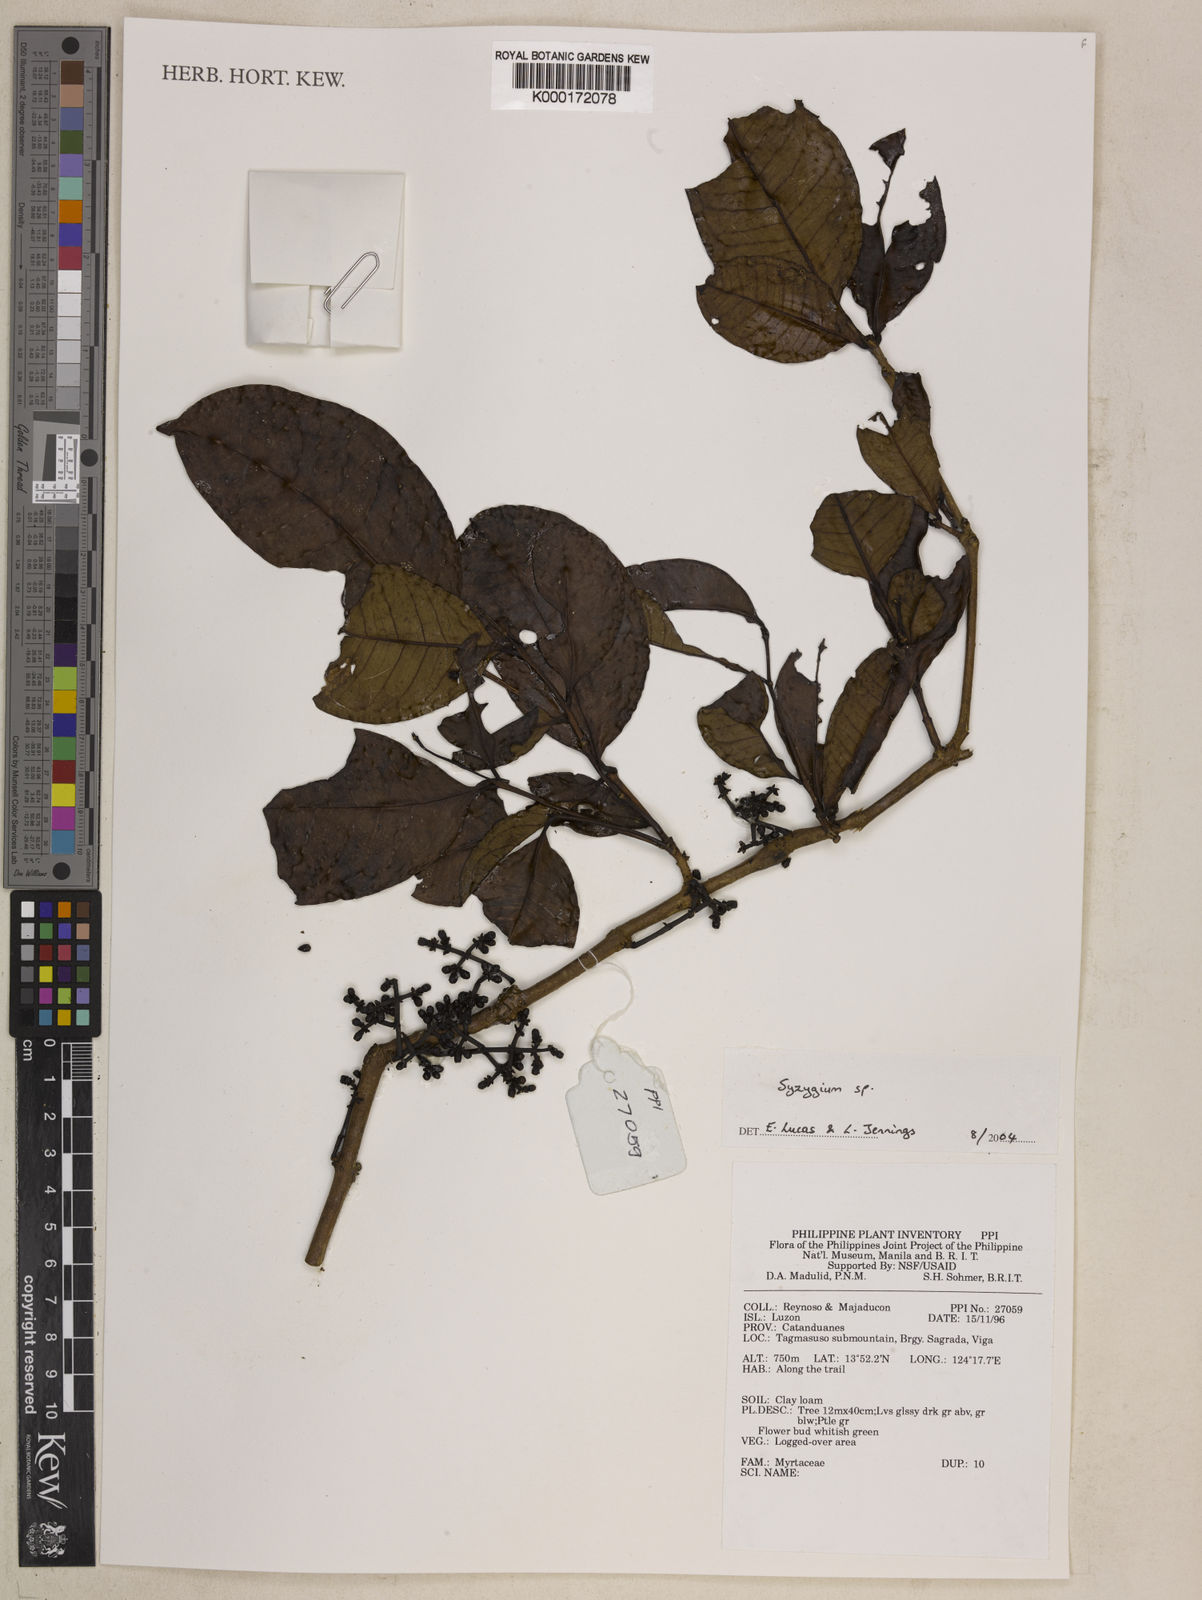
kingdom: Plantae
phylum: Tracheophyta
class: Magnoliopsida
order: Myrtales
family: Myrtaceae
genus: Syzygium
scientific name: Syzygium
